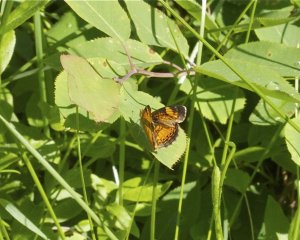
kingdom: Animalia
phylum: Arthropoda
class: Insecta
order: Lepidoptera
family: Nymphalidae
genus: Phyciodes
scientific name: Phyciodes tharos
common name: Northern Crescent
